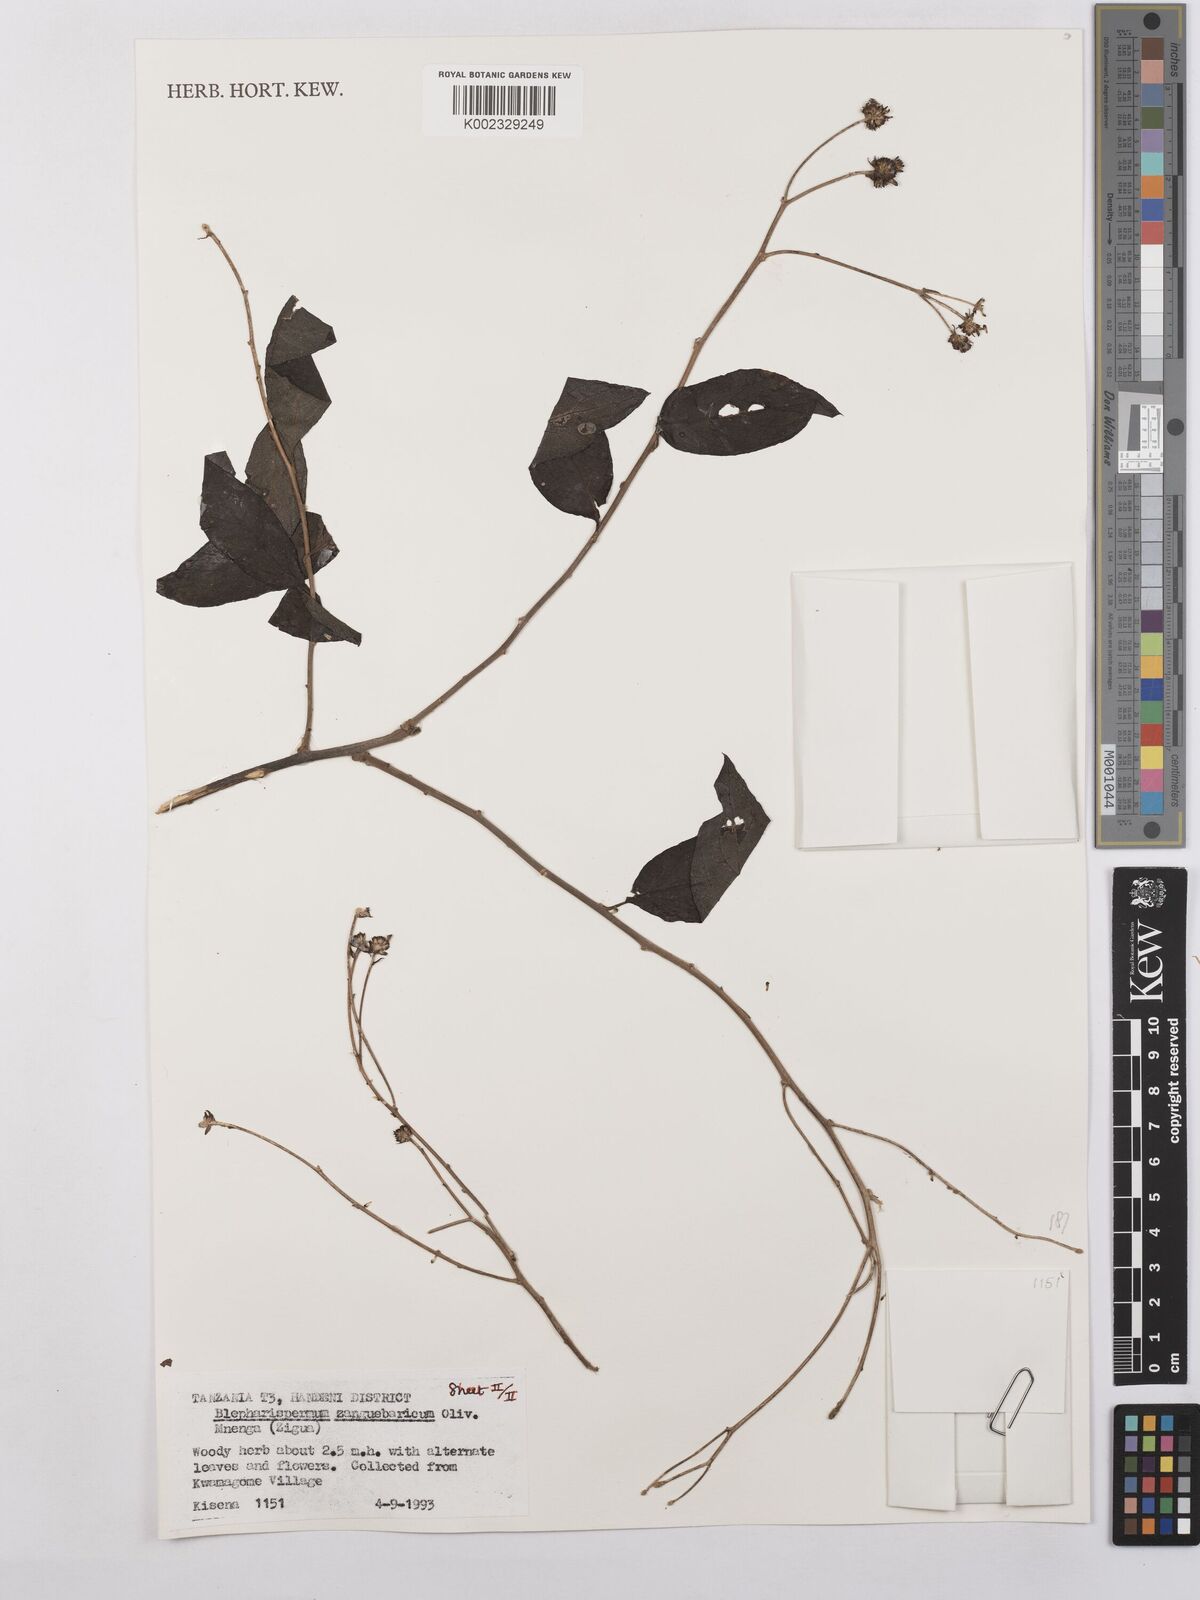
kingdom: Plantae
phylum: Tracheophyta
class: Magnoliopsida
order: Asterales
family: Asteraceae
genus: Blepharispermum
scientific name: Blepharispermum zanguebaricum
